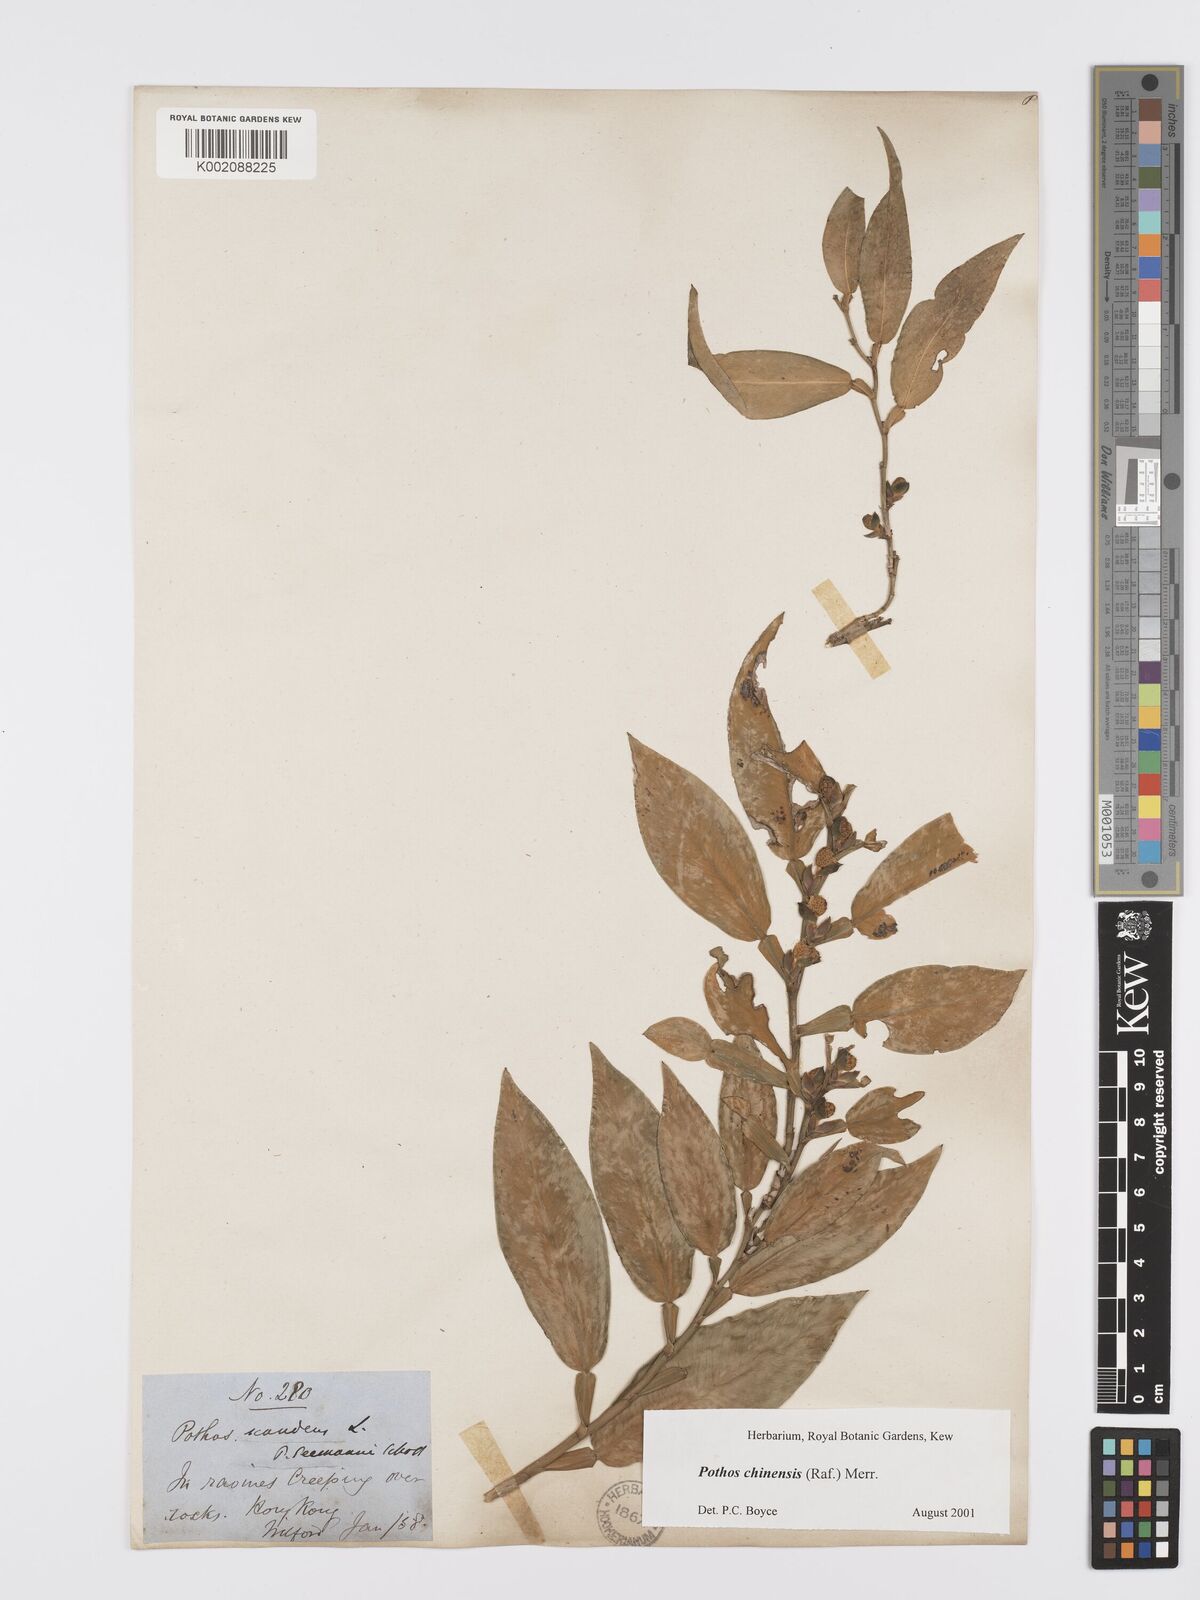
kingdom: Plantae
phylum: Tracheophyta
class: Liliopsida
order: Alismatales
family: Araceae
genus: Pothos
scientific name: Pothos chinensis
